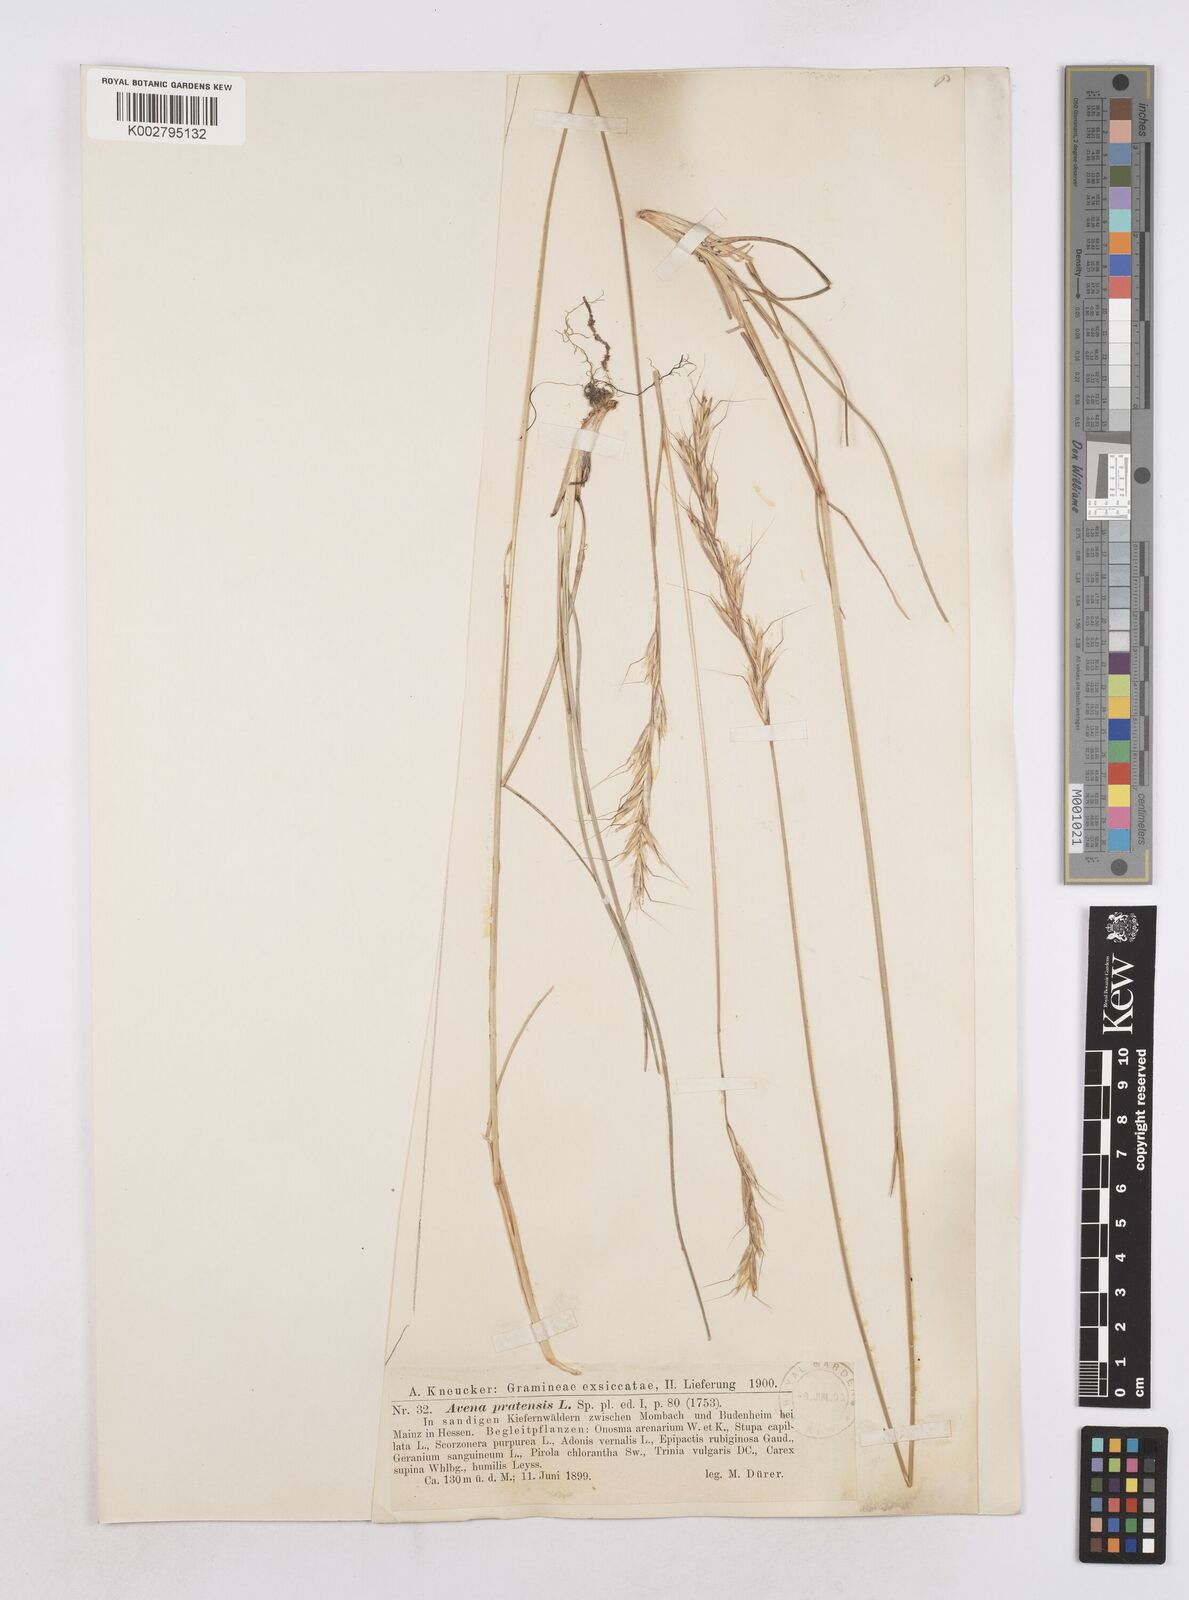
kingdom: Plantae
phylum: Tracheophyta
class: Liliopsida
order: Poales
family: Poaceae
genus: Helictochloa
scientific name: Helictochloa pratensis
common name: Meadow oat grass
